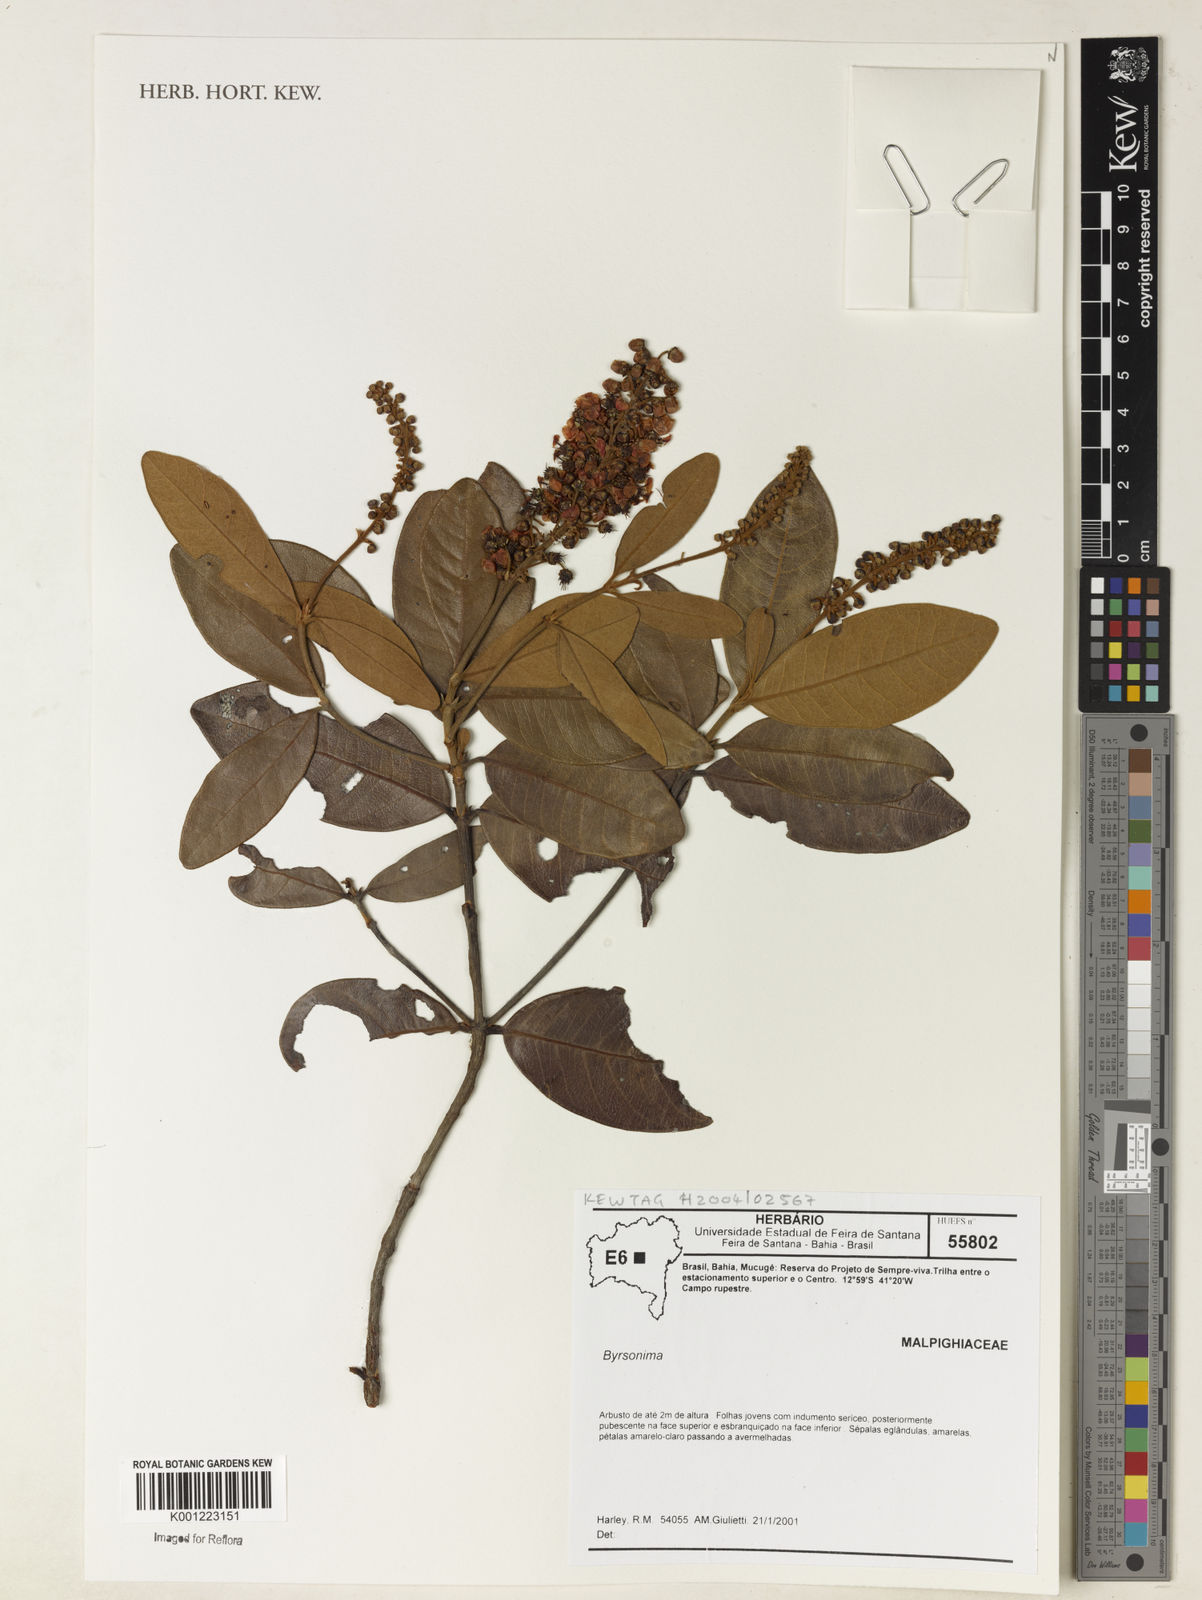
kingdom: Plantae
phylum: Tracheophyta
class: Magnoliopsida
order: Malpighiales
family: Malpighiaceae
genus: Byrsonima
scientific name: Byrsonima
